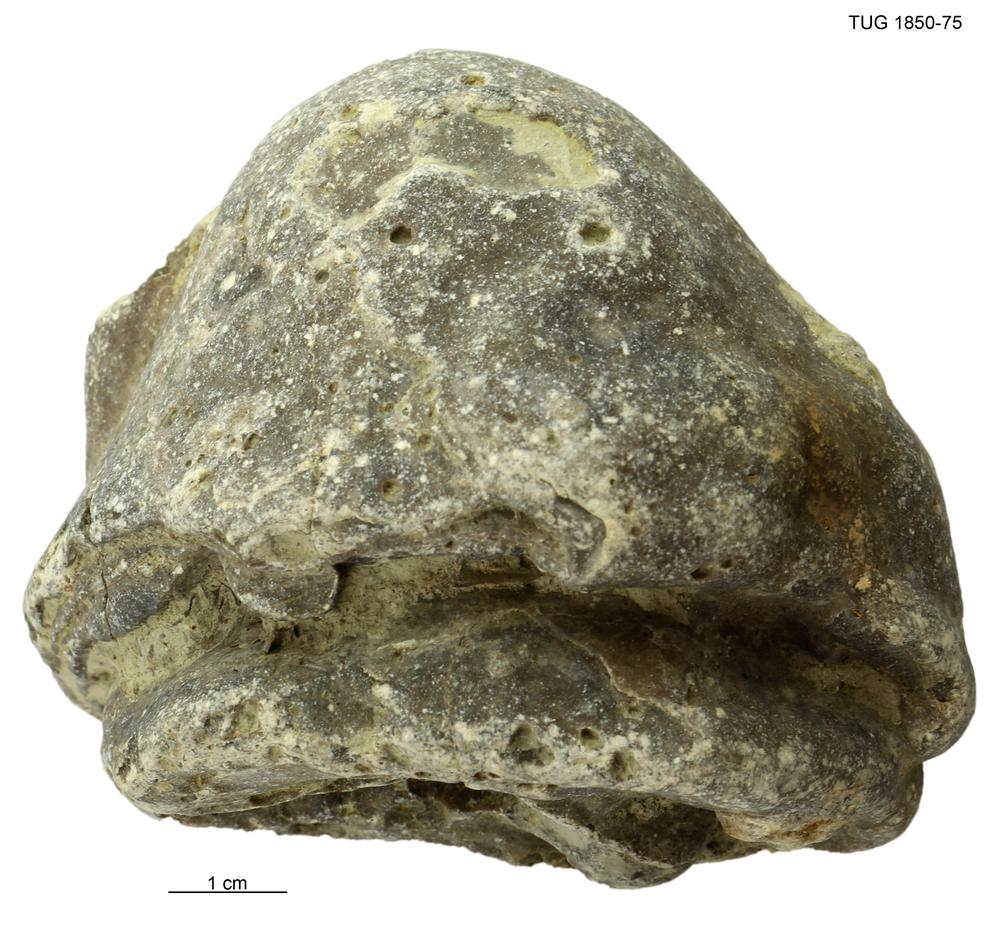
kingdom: Animalia
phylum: Porifera
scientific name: Porifera
